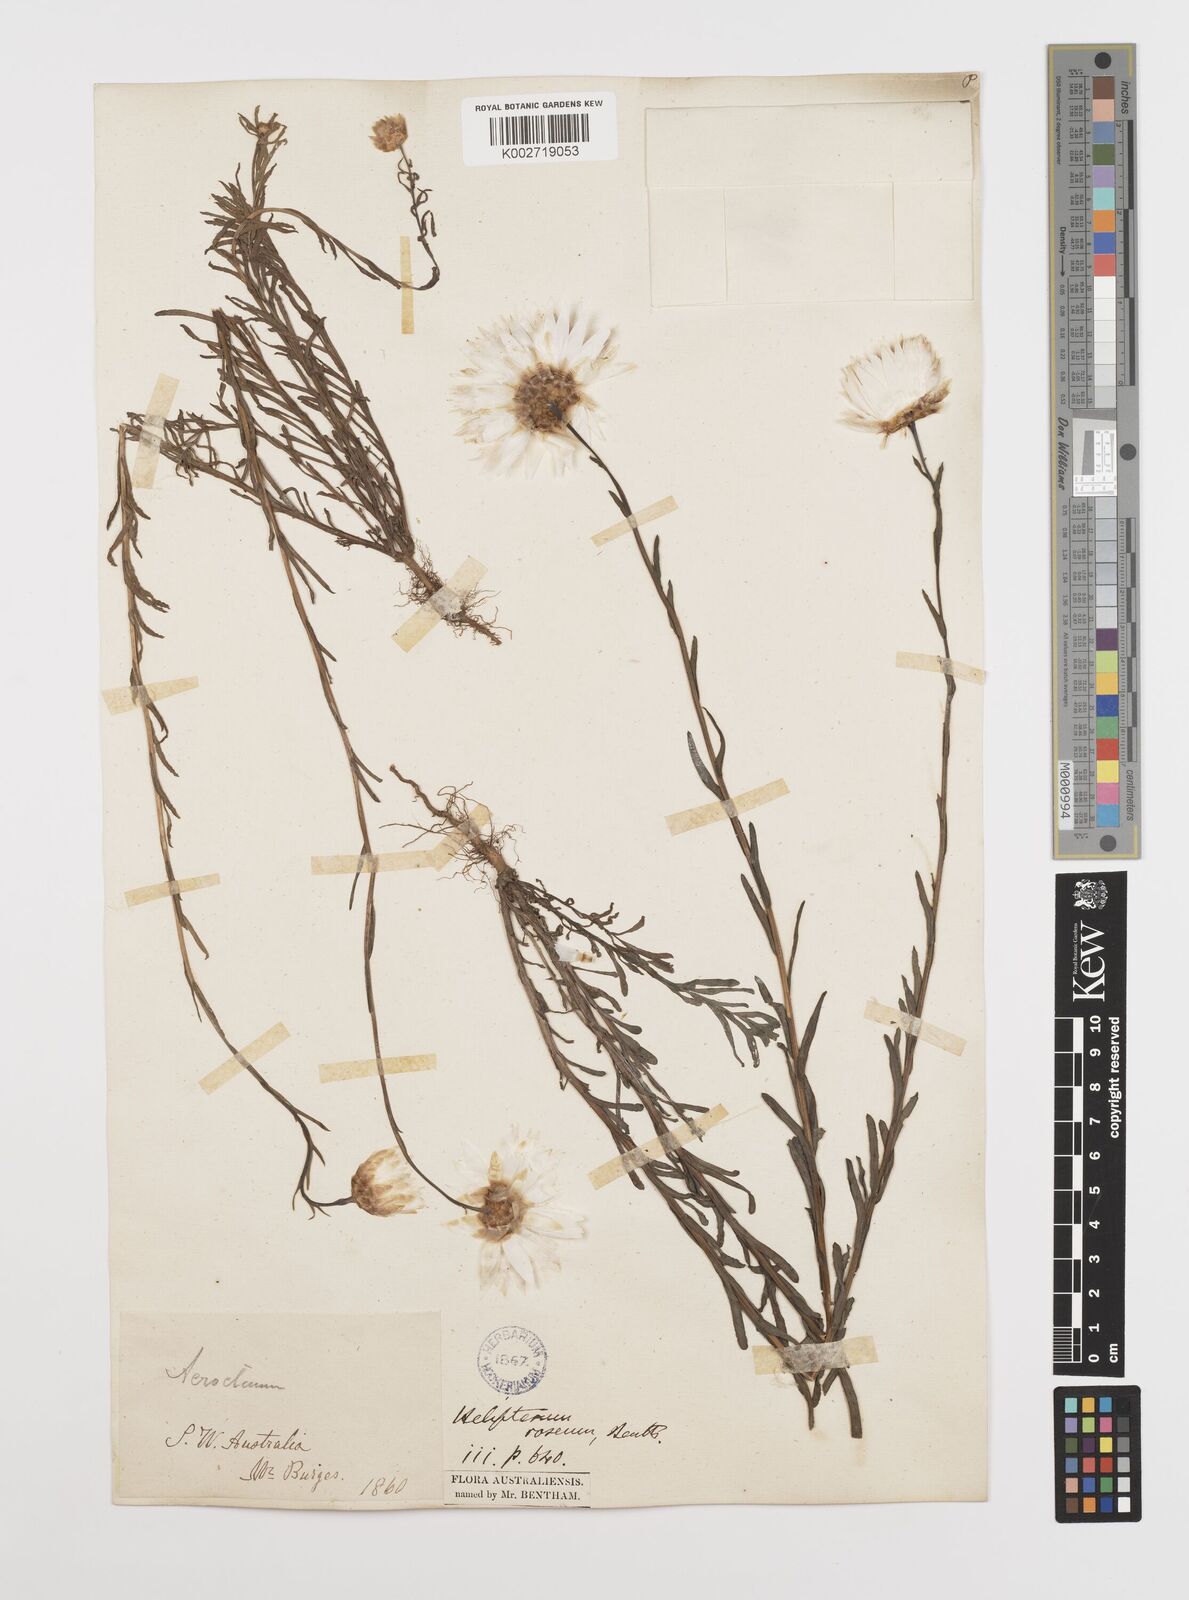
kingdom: Plantae
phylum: Tracheophyta
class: Magnoliopsida
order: Asterales
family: Asteraceae
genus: Rhodanthe
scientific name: Rhodanthe chlorocephala
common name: Rosy sunray
